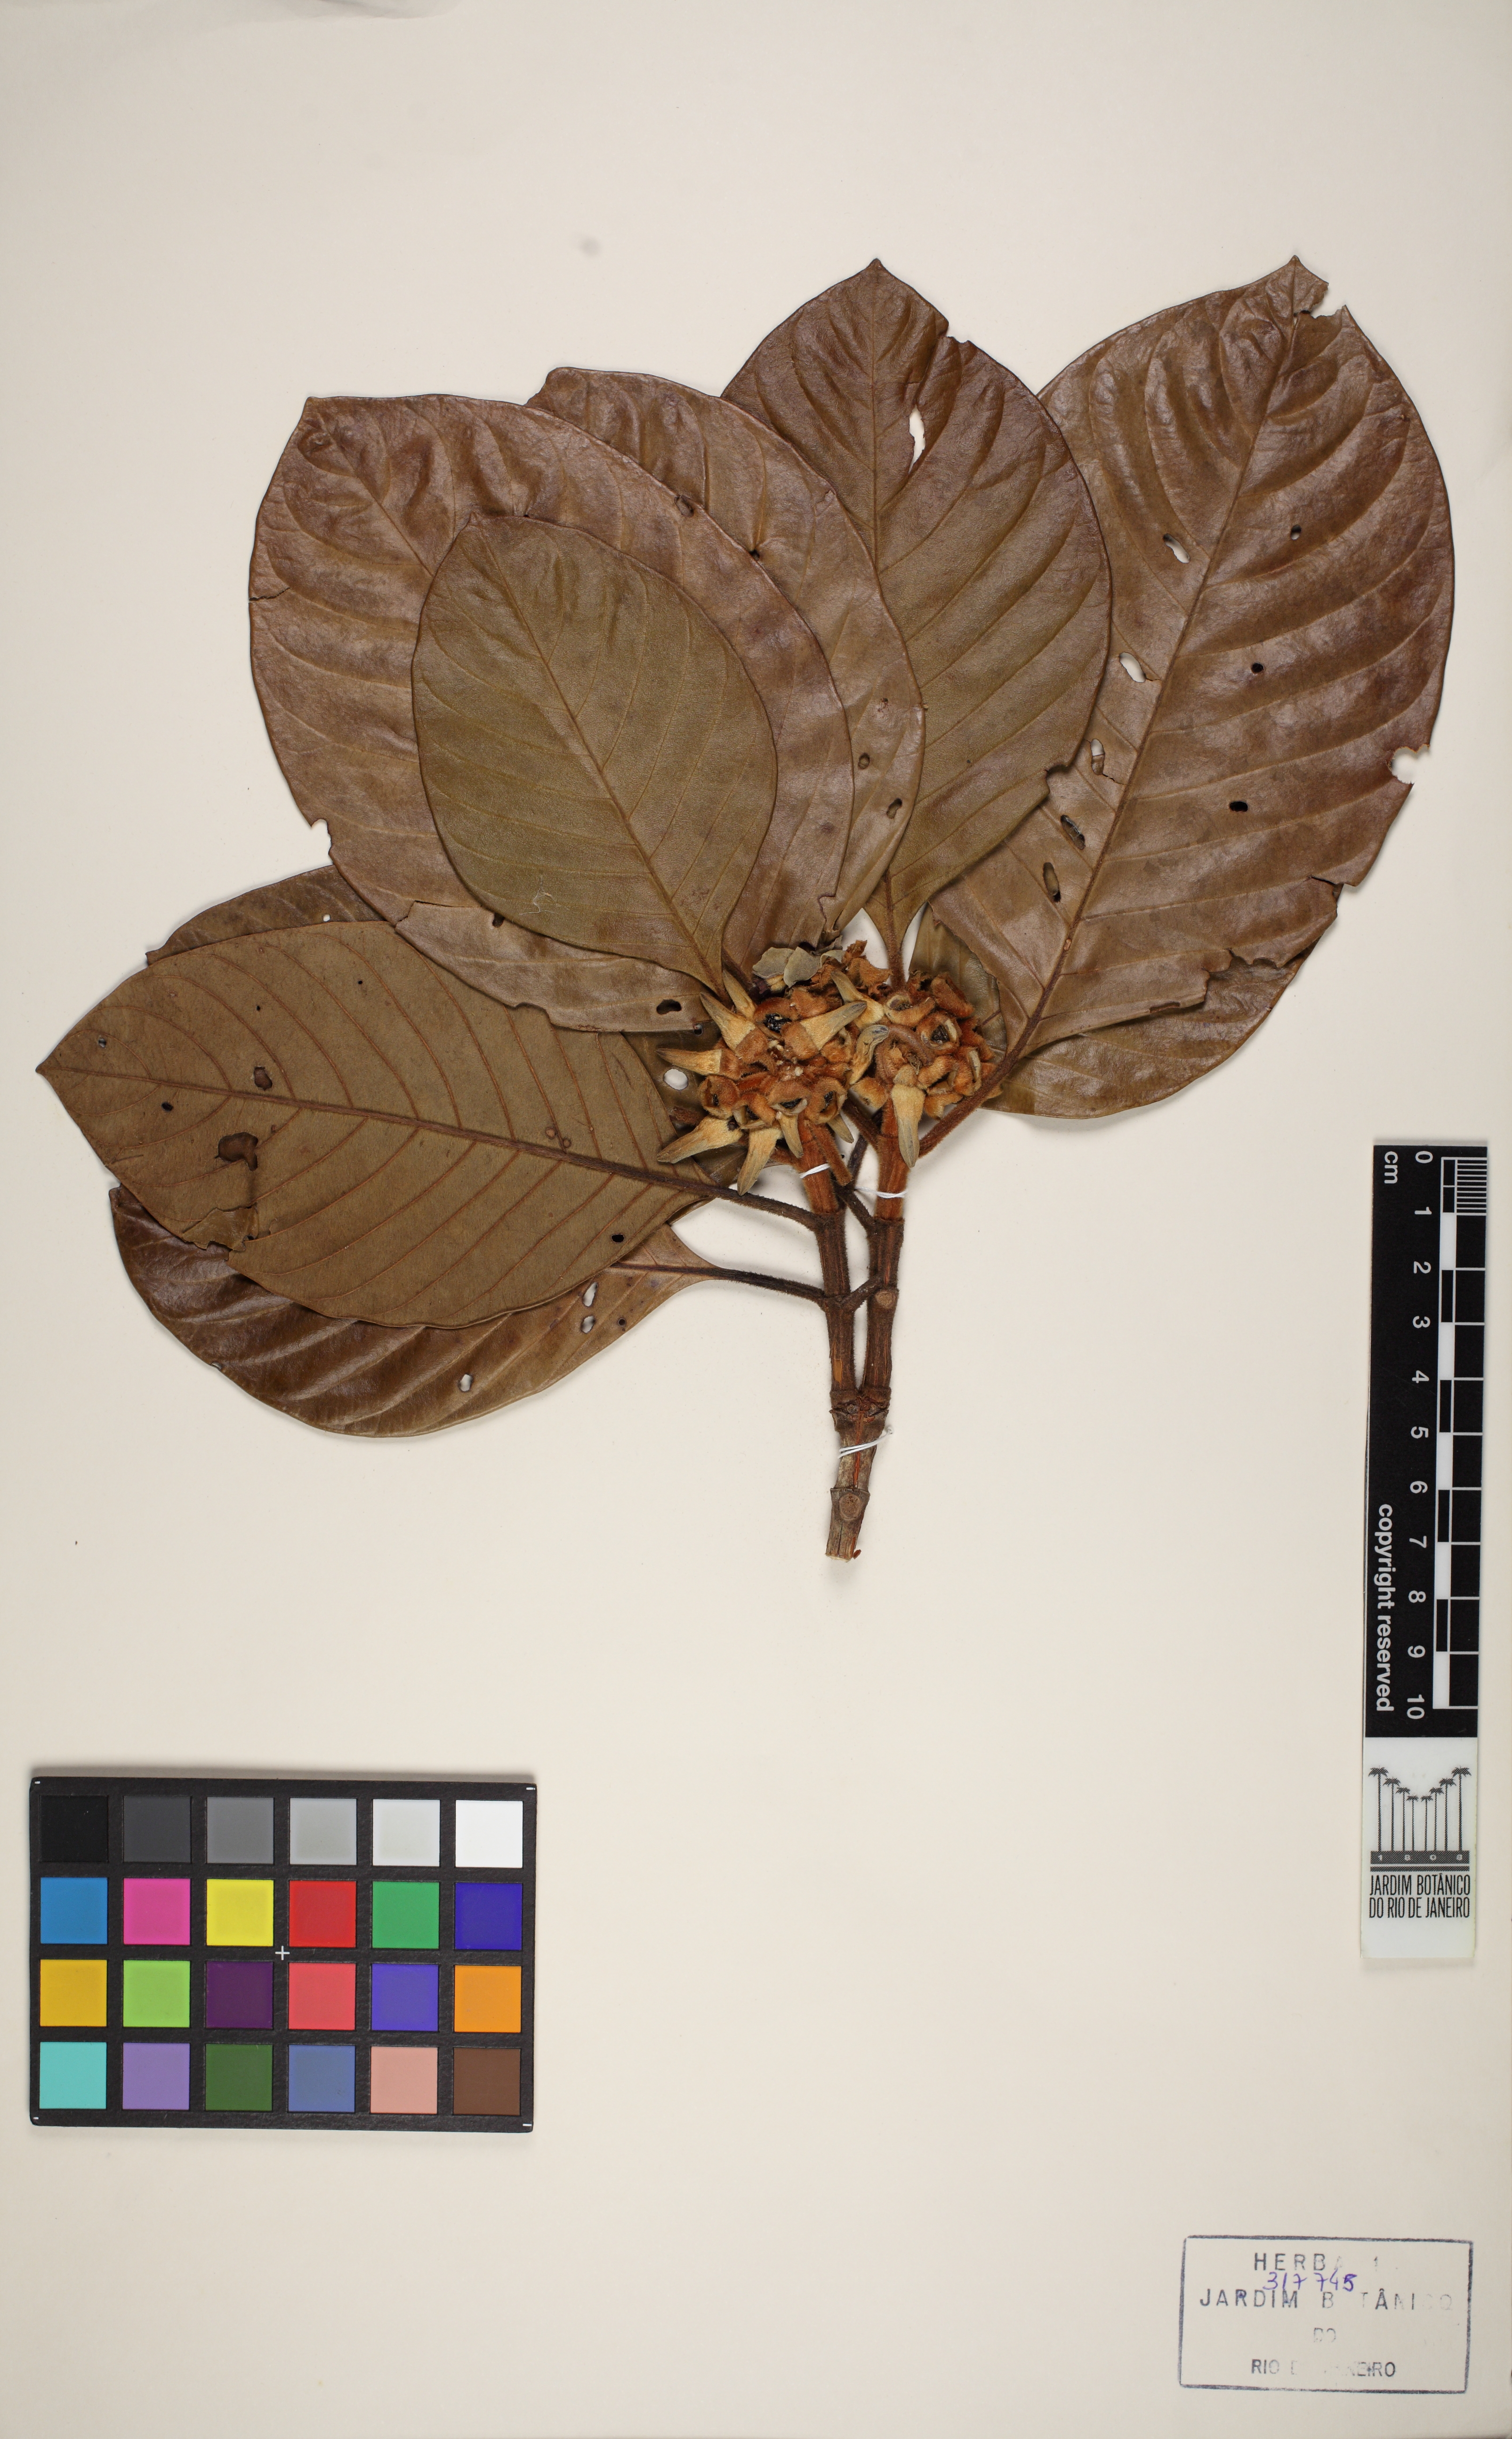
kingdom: Plantae
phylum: Tracheophyta
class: Magnoliopsida
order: Gentianales
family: Rubiaceae
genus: Duroia
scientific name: Duroia velutina
